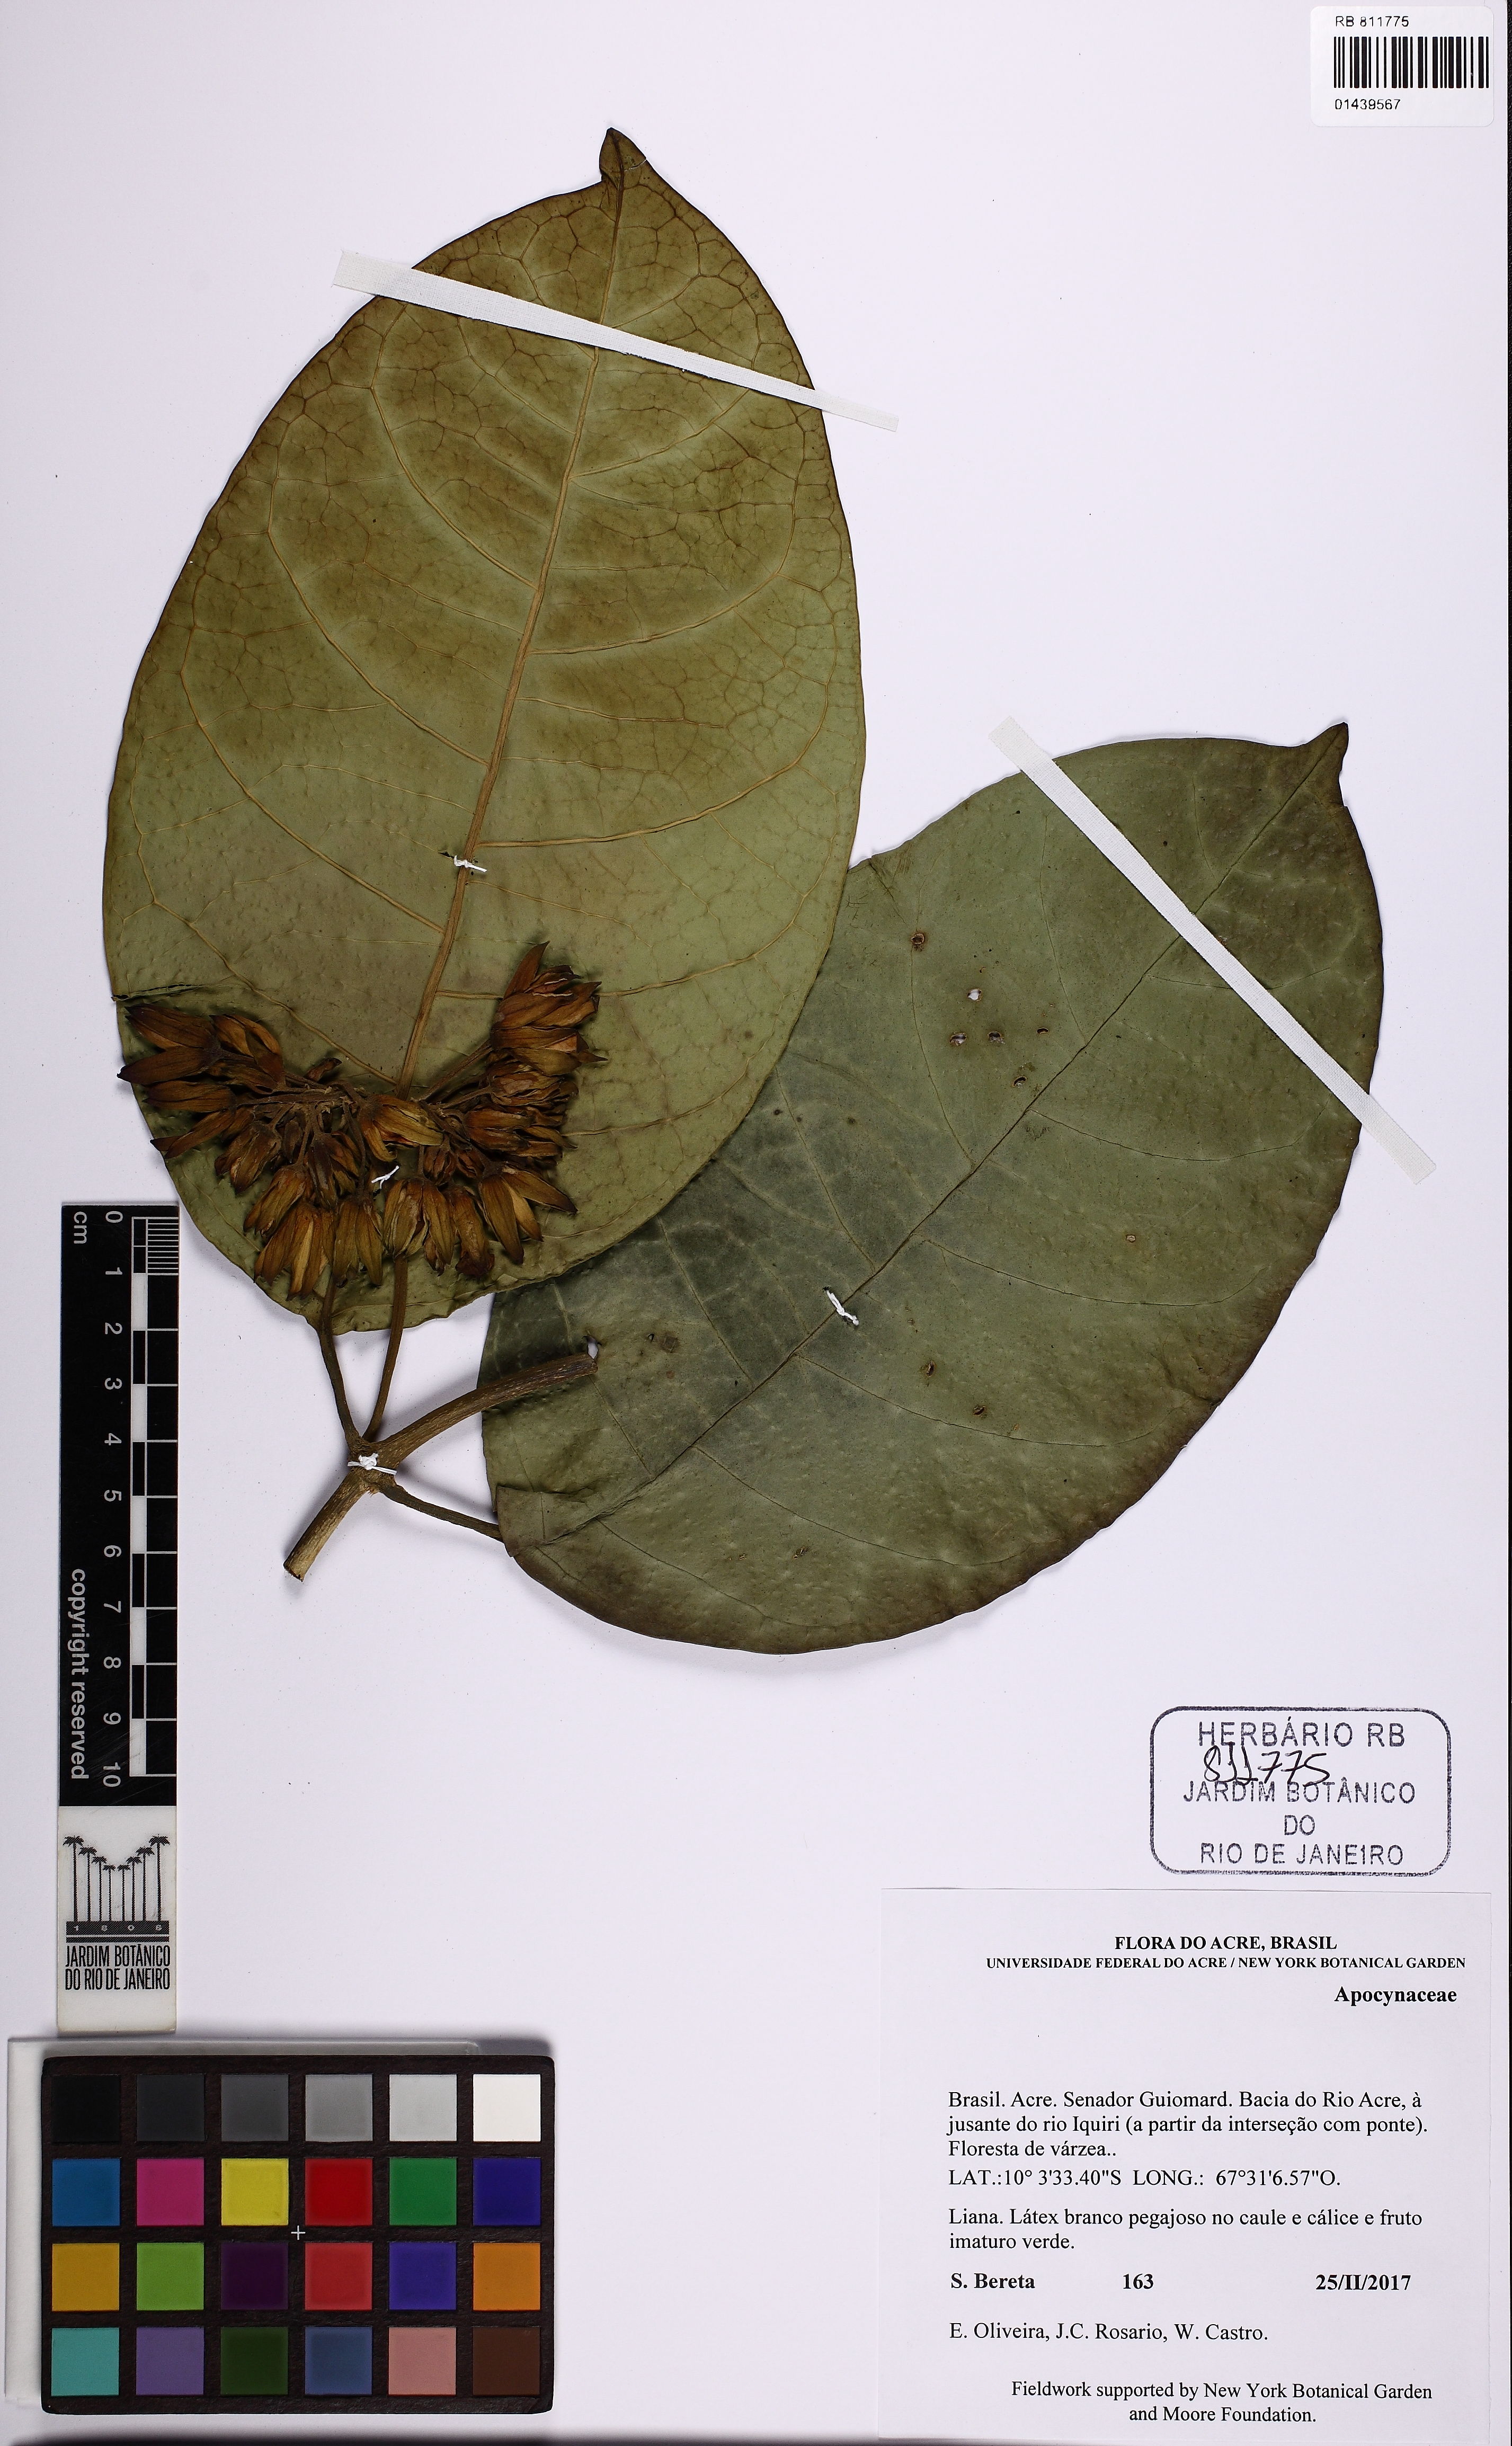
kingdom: Plantae
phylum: Tracheophyta
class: Magnoliopsida
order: Gentianales
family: Apocynaceae
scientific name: Apocynaceae
